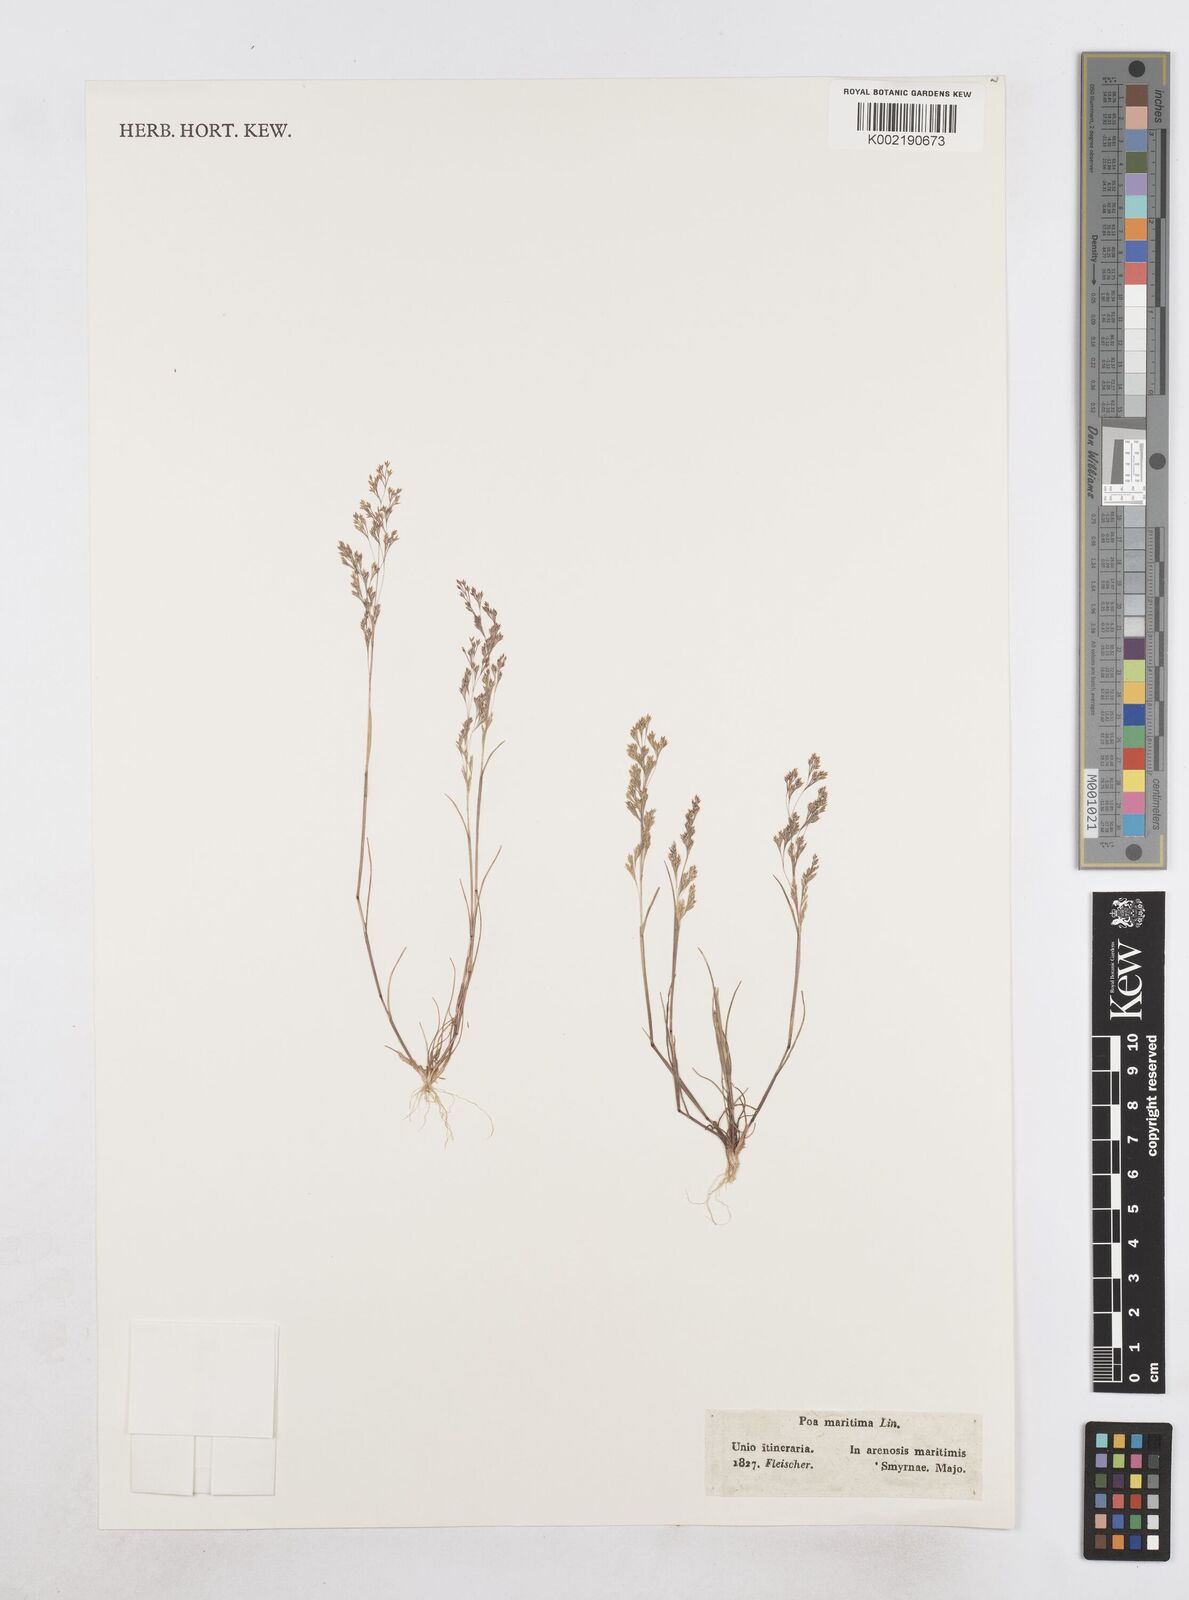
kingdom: Plantae
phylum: Tracheophyta
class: Liliopsida
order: Poales
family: Poaceae
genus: Sphenopus
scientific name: Sphenopus divaricatus
